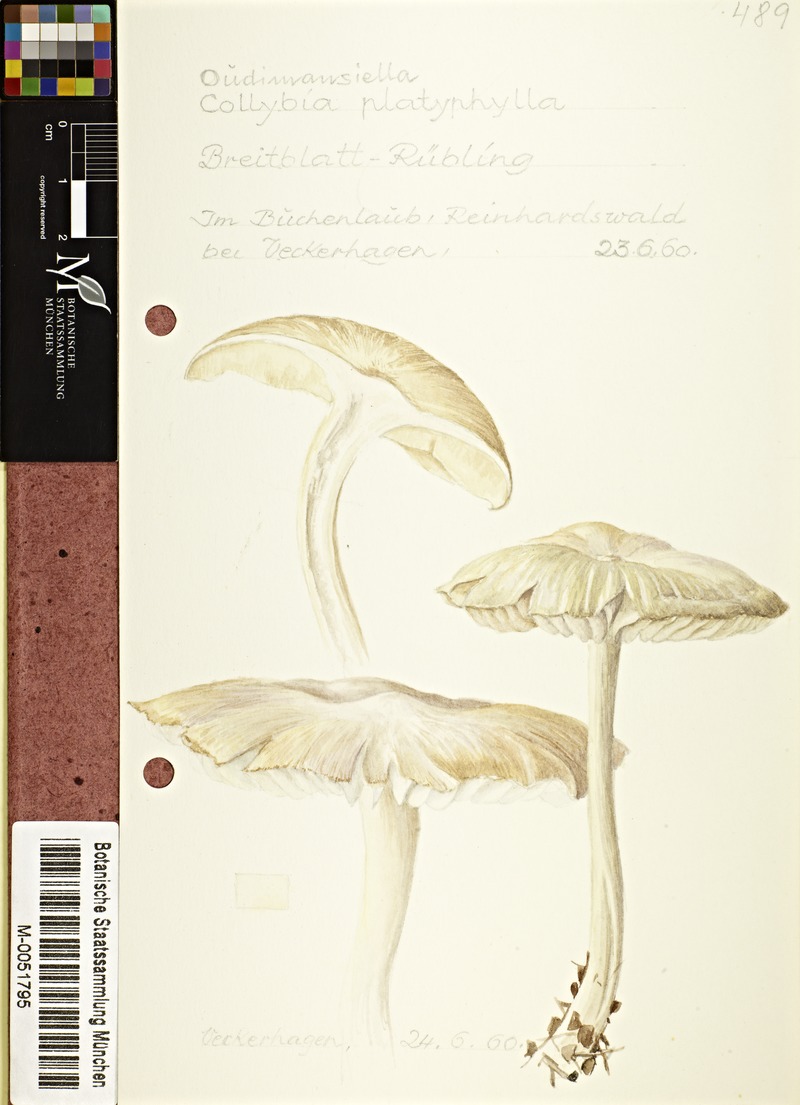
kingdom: Fungi
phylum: Basidiomycota
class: Agaricomycetes
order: Agaricales
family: Tricholomataceae
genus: Megacollybia
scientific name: Megacollybia platyphylla
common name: Whitelaced shank
